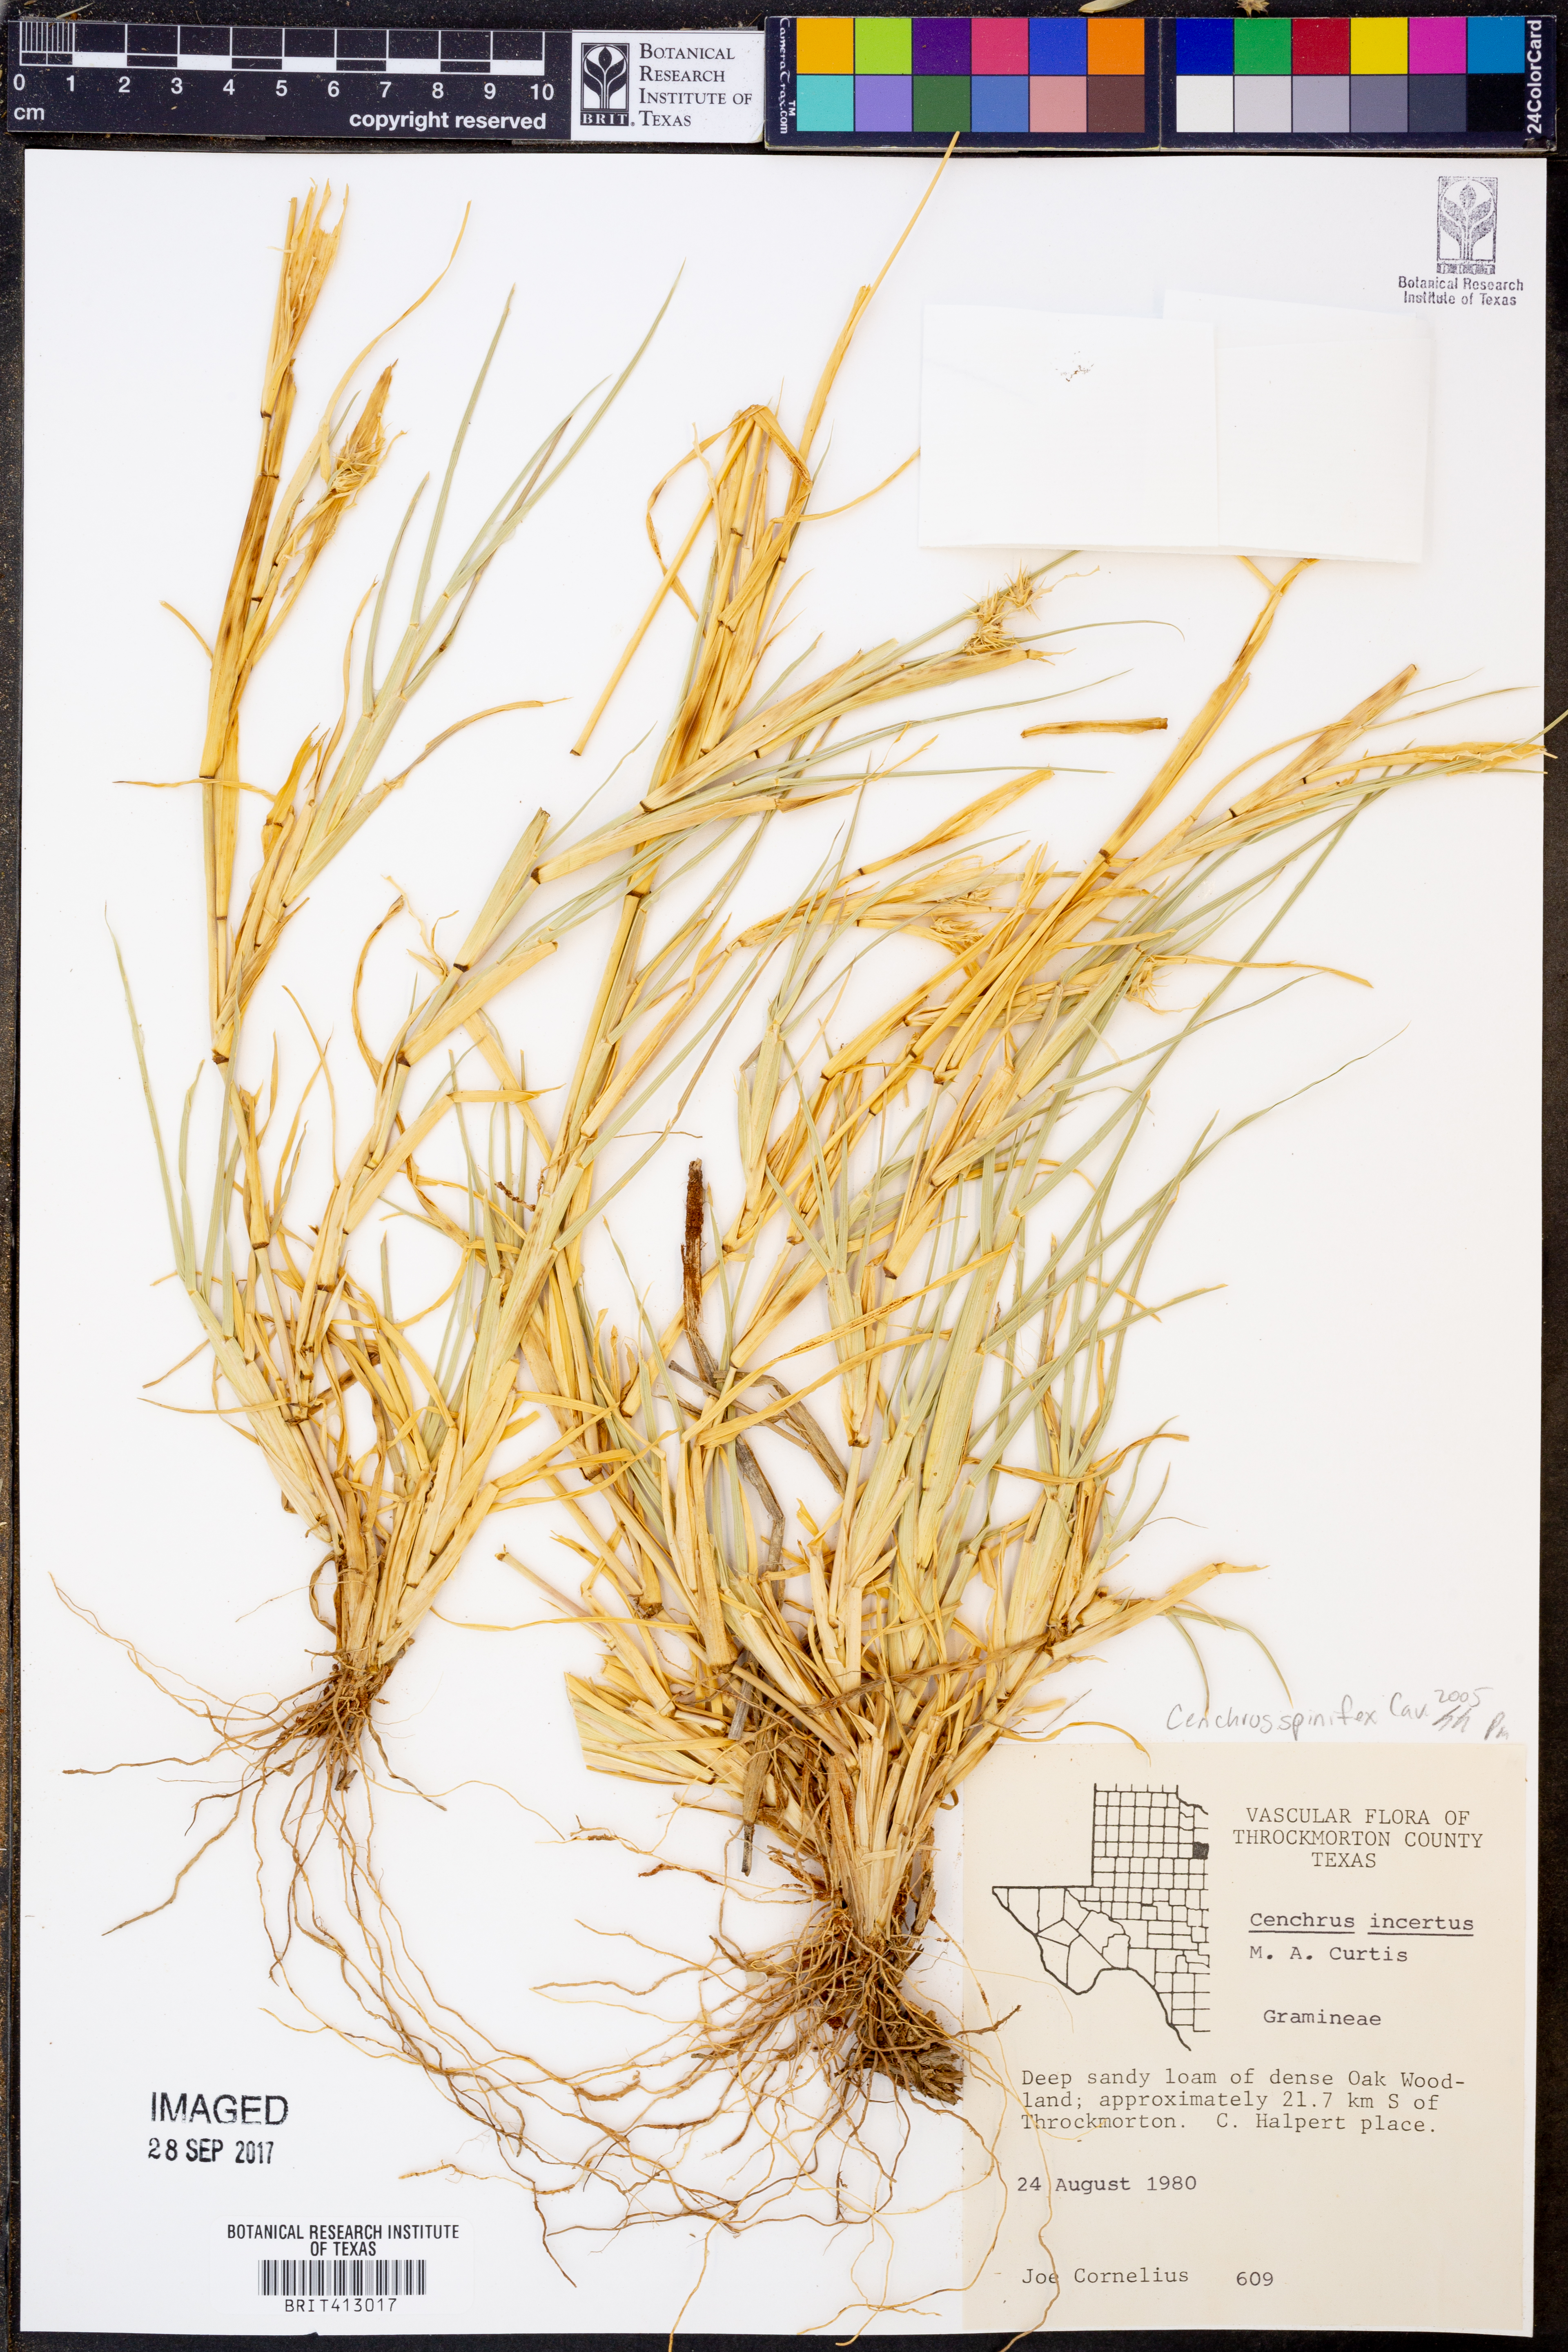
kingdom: Plantae
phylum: Tracheophyta
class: Liliopsida
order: Poales
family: Poaceae
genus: Cenchrus
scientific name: Cenchrus spinifex
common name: Coast sandbur
